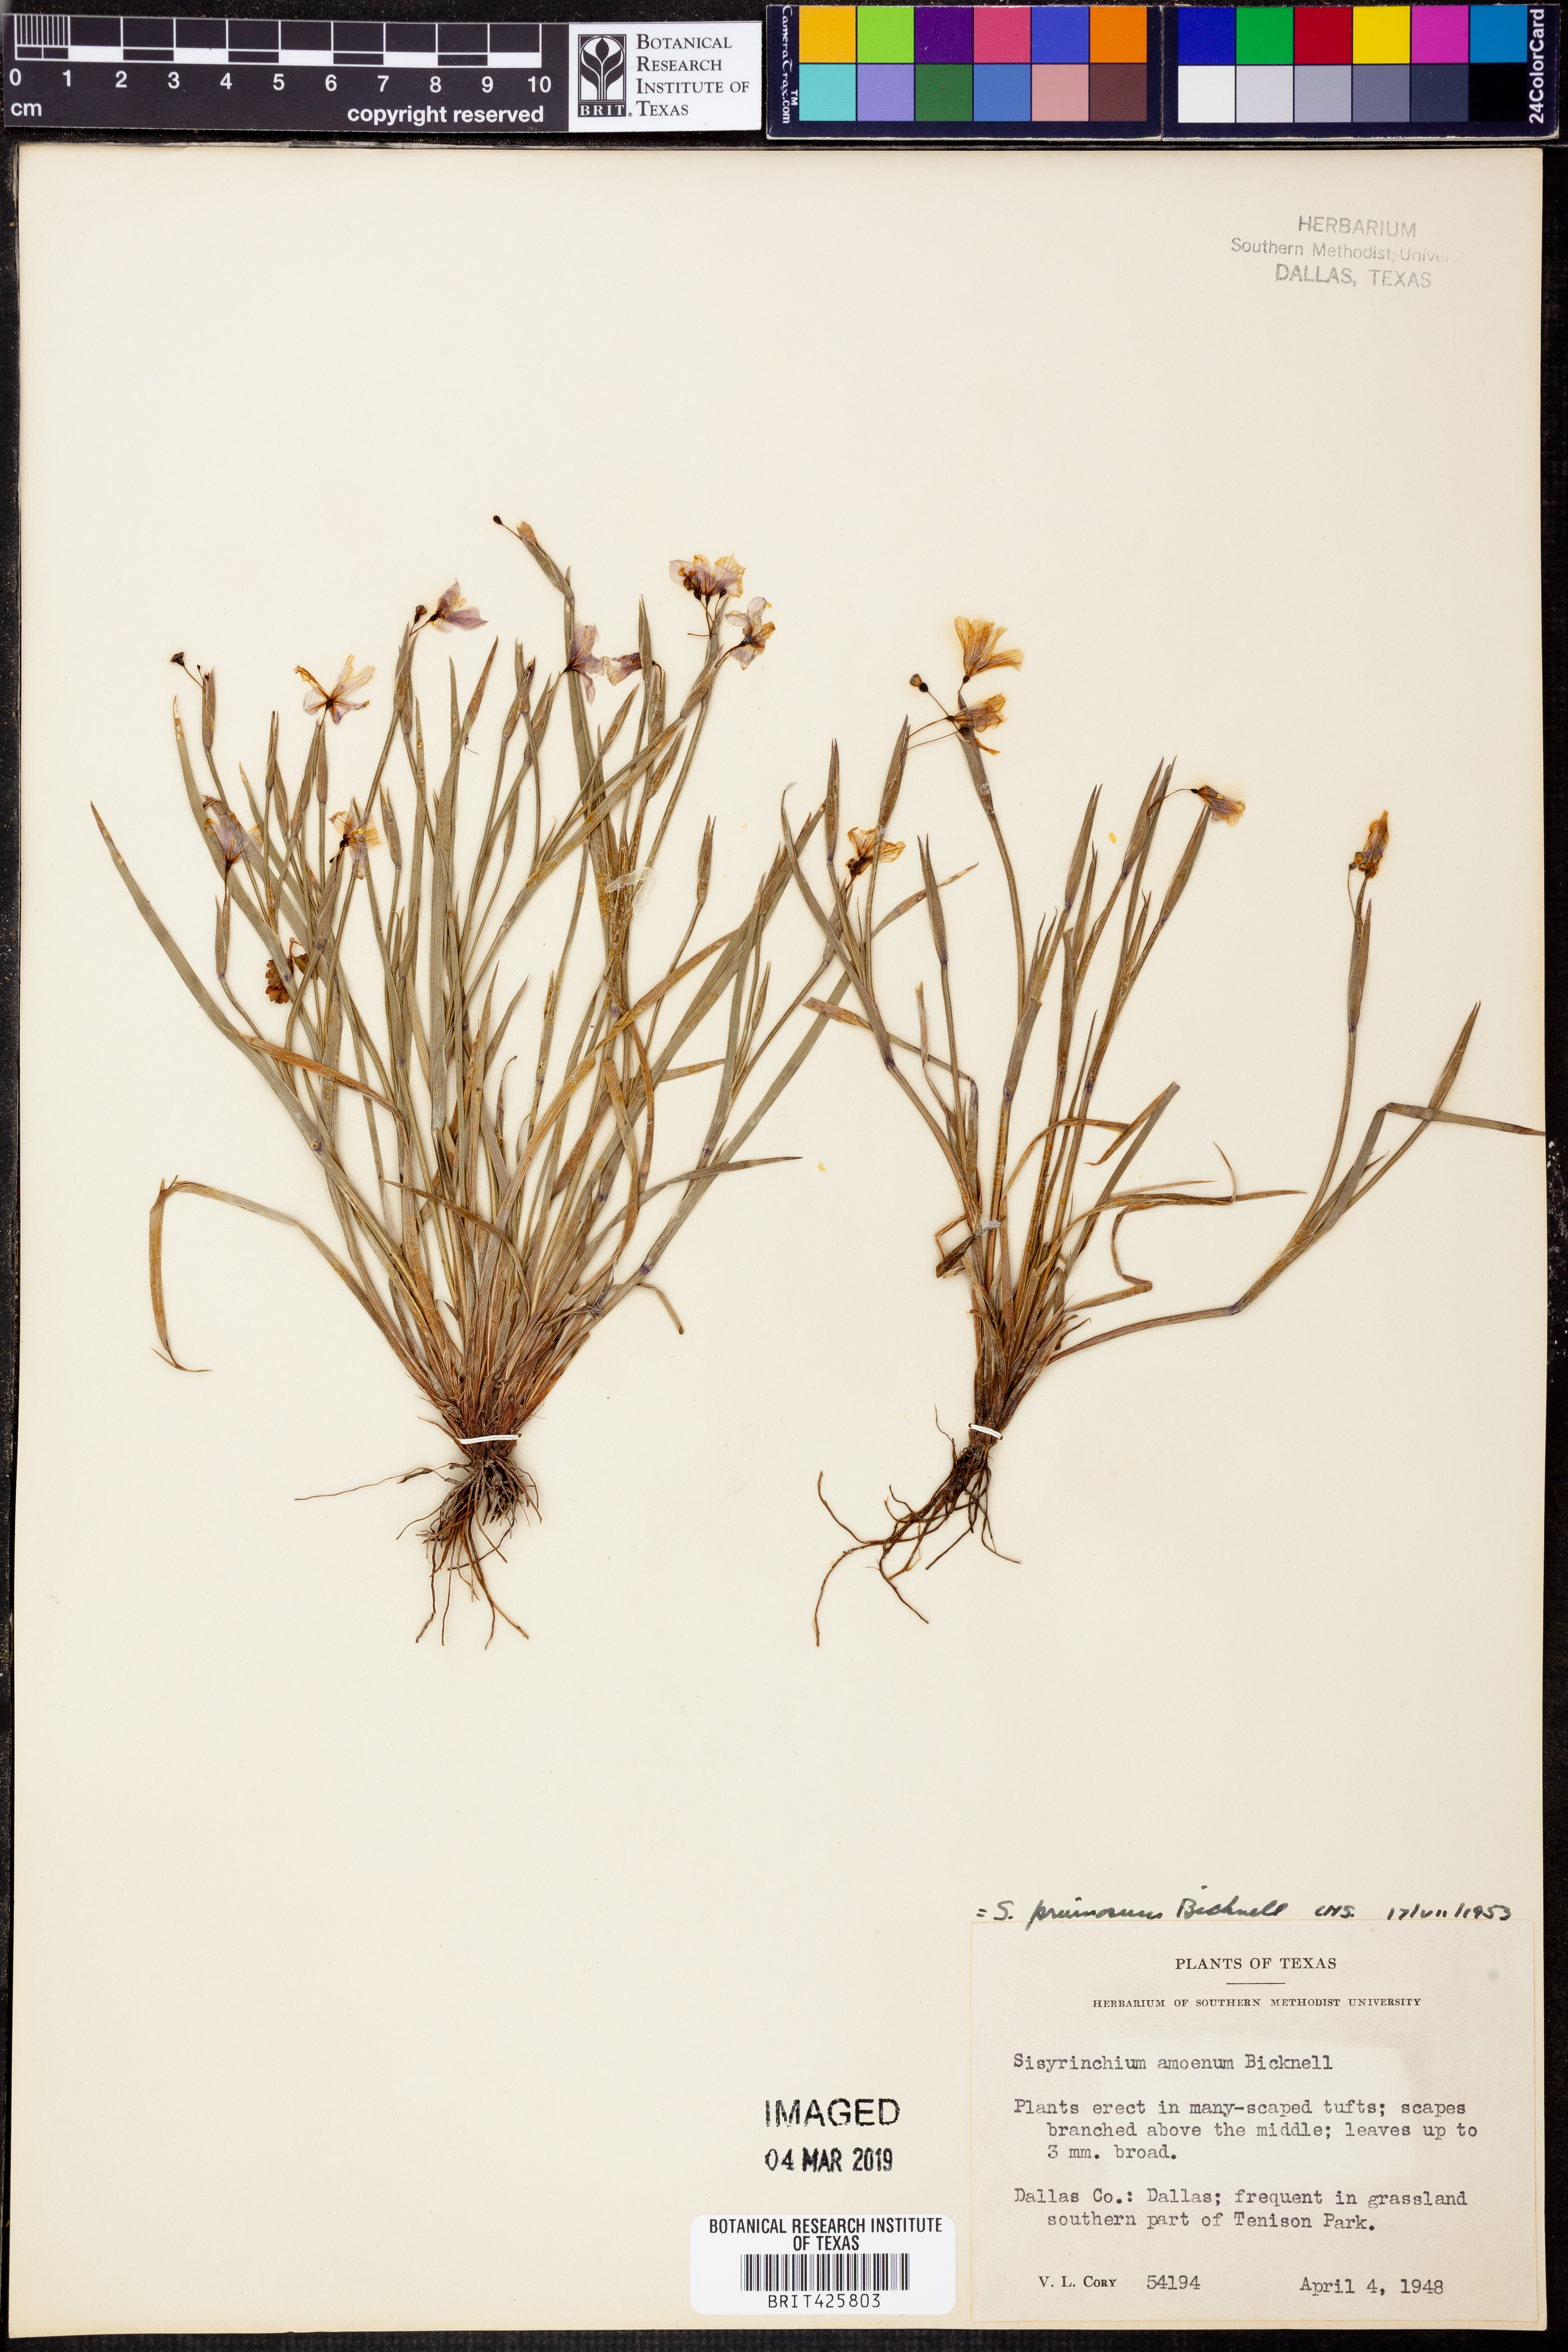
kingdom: Plantae
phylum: Tracheophyta
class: Liliopsida
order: Asparagales
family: Iridaceae
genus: Sisyrinchium
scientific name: Sisyrinchium pruinosum
